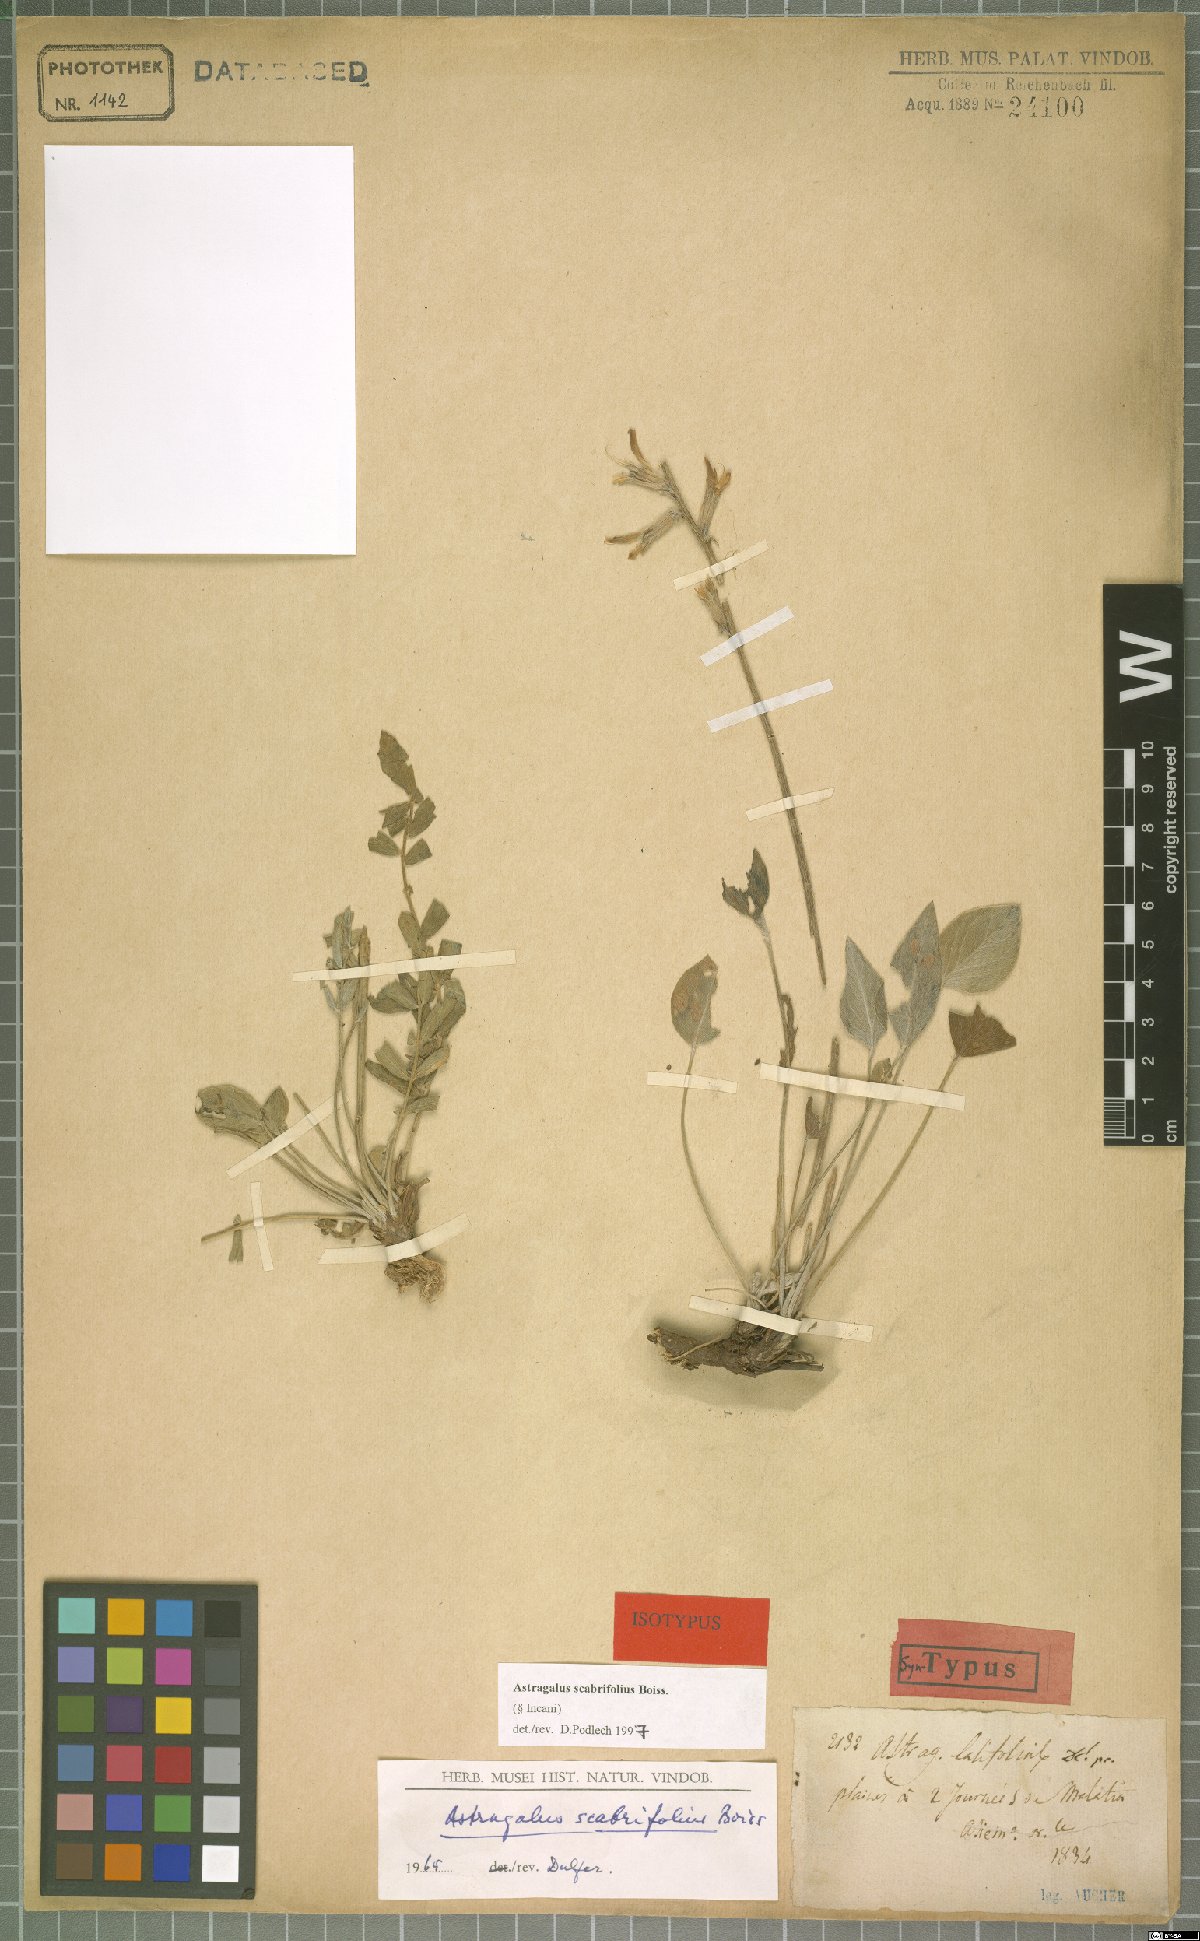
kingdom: Plantae
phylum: Tracheophyta
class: Magnoliopsida
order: Fabales
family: Fabaceae
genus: Astragalus
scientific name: Astragalus scabrifolius
